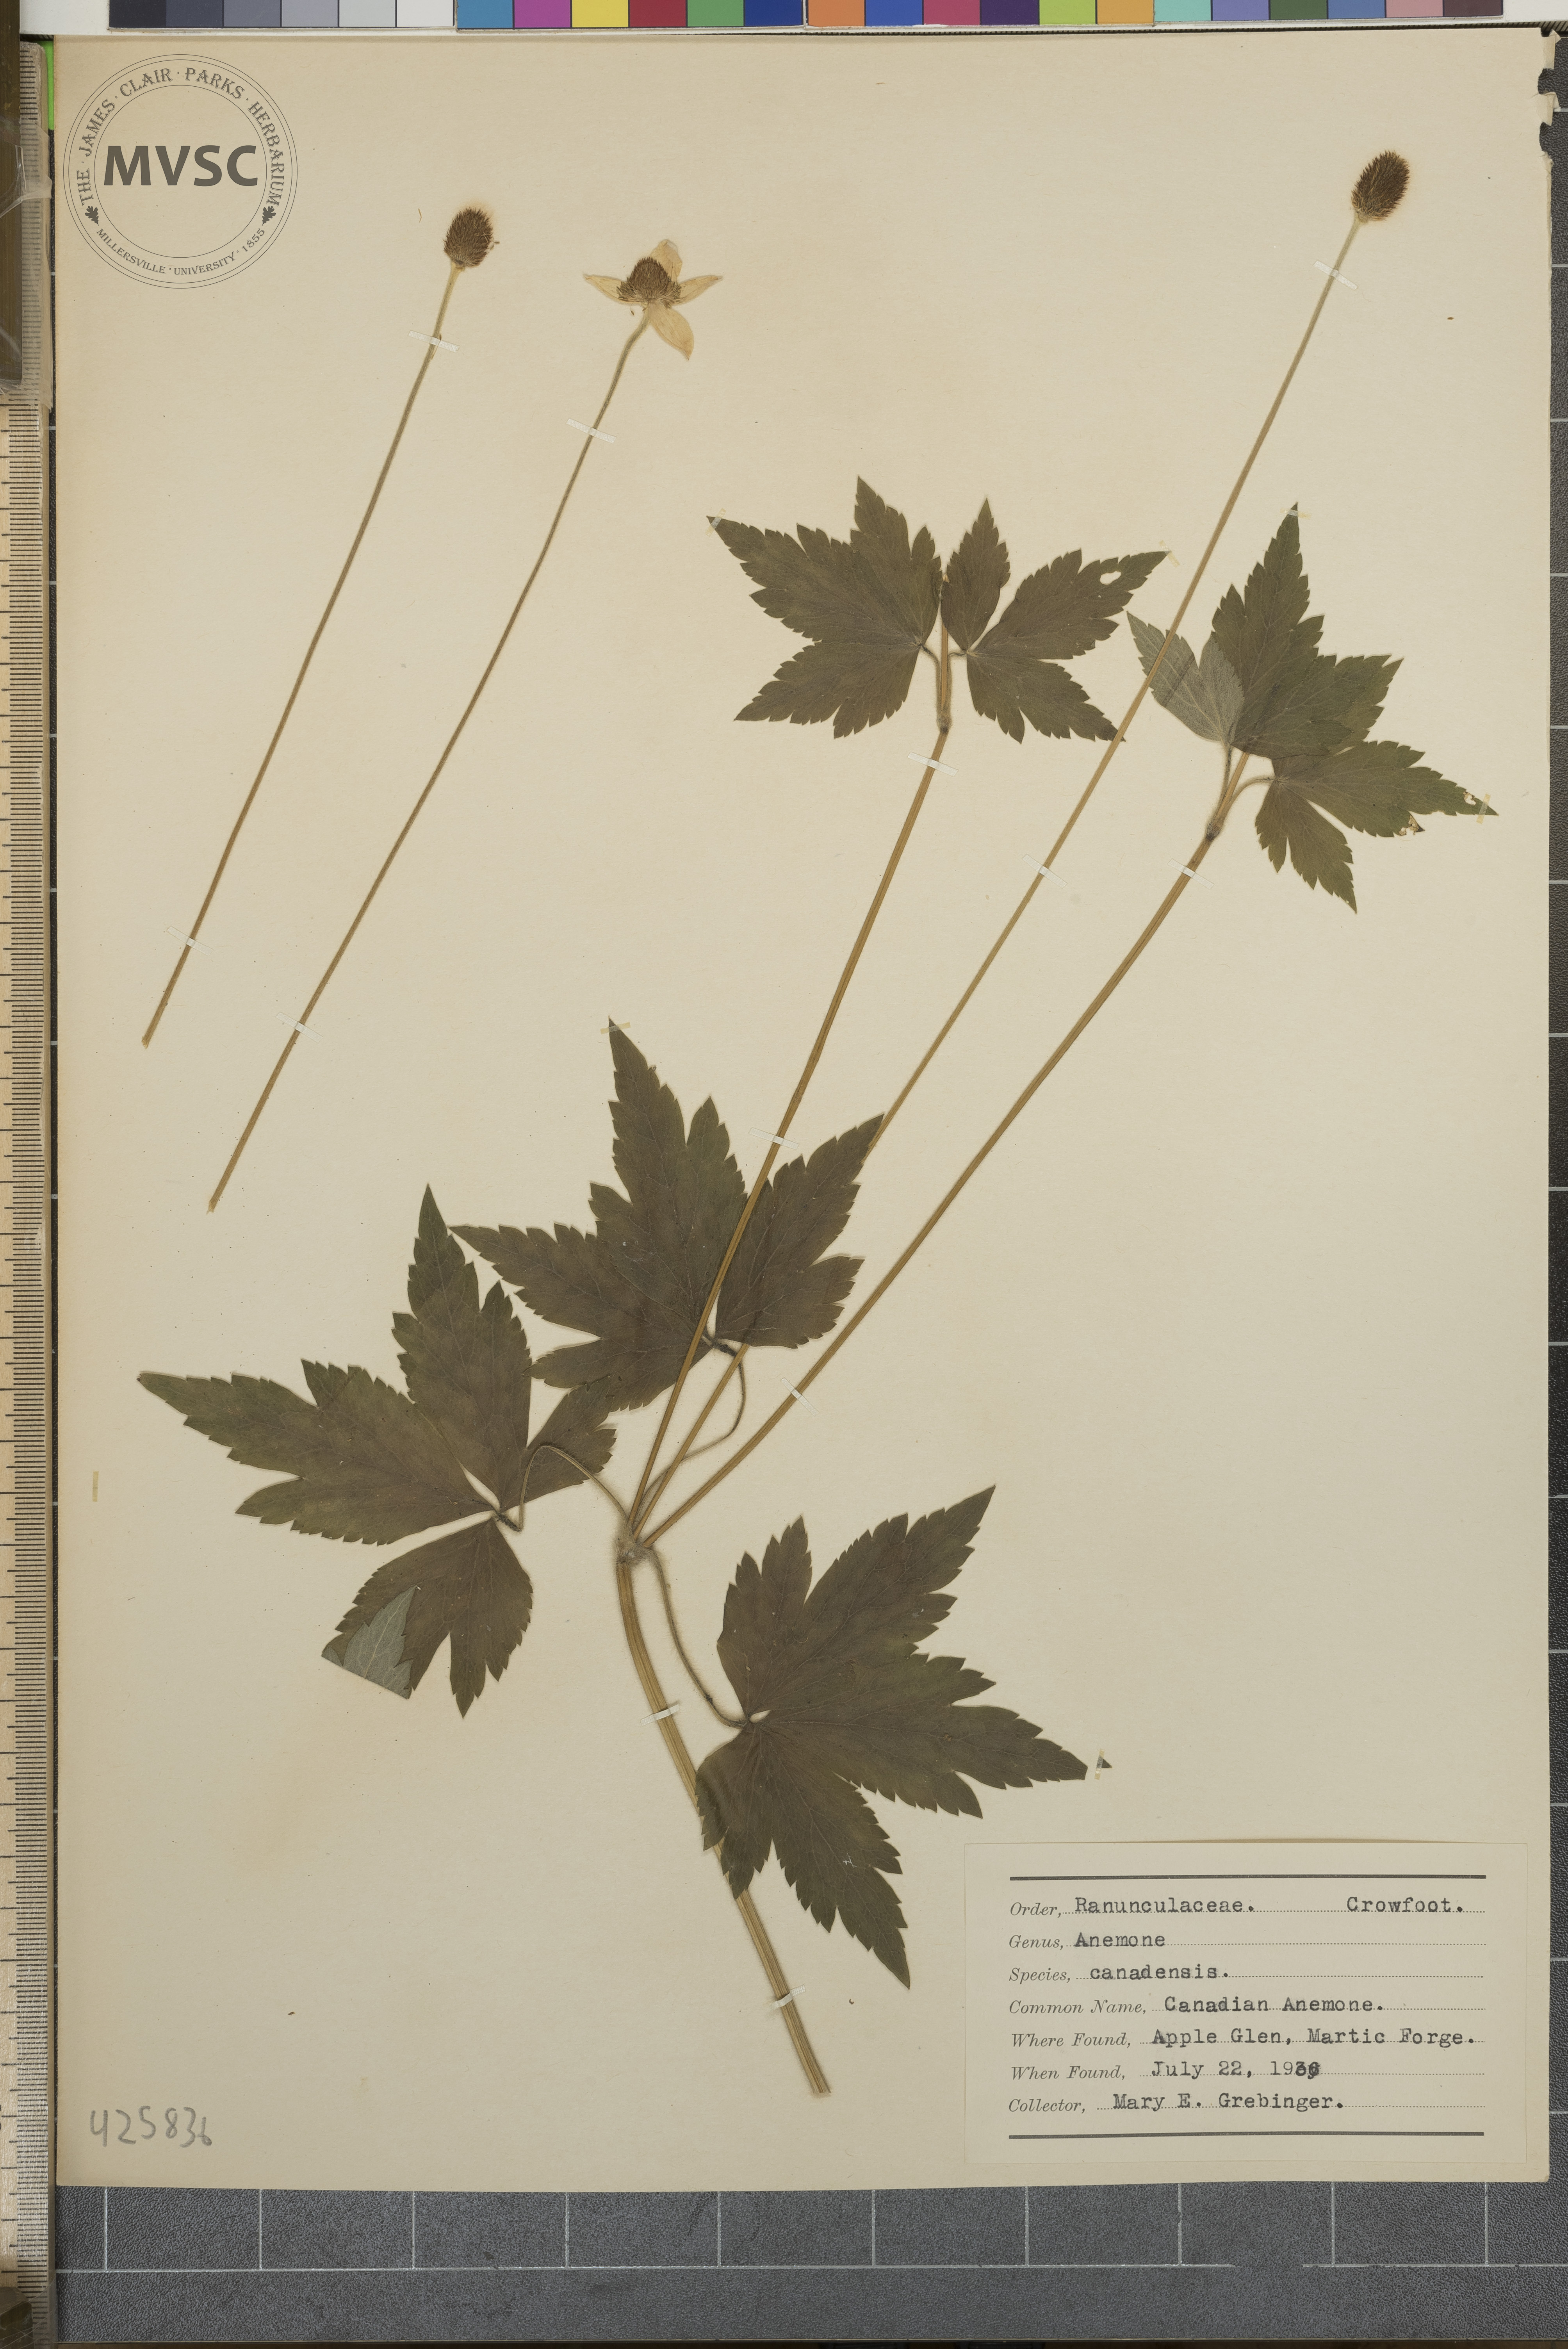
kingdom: Plantae
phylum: Tracheophyta
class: Magnoliopsida
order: Ranunculales
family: Ranunculaceae
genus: Anemone
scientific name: Anemone virginiana
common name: Tall anemone
